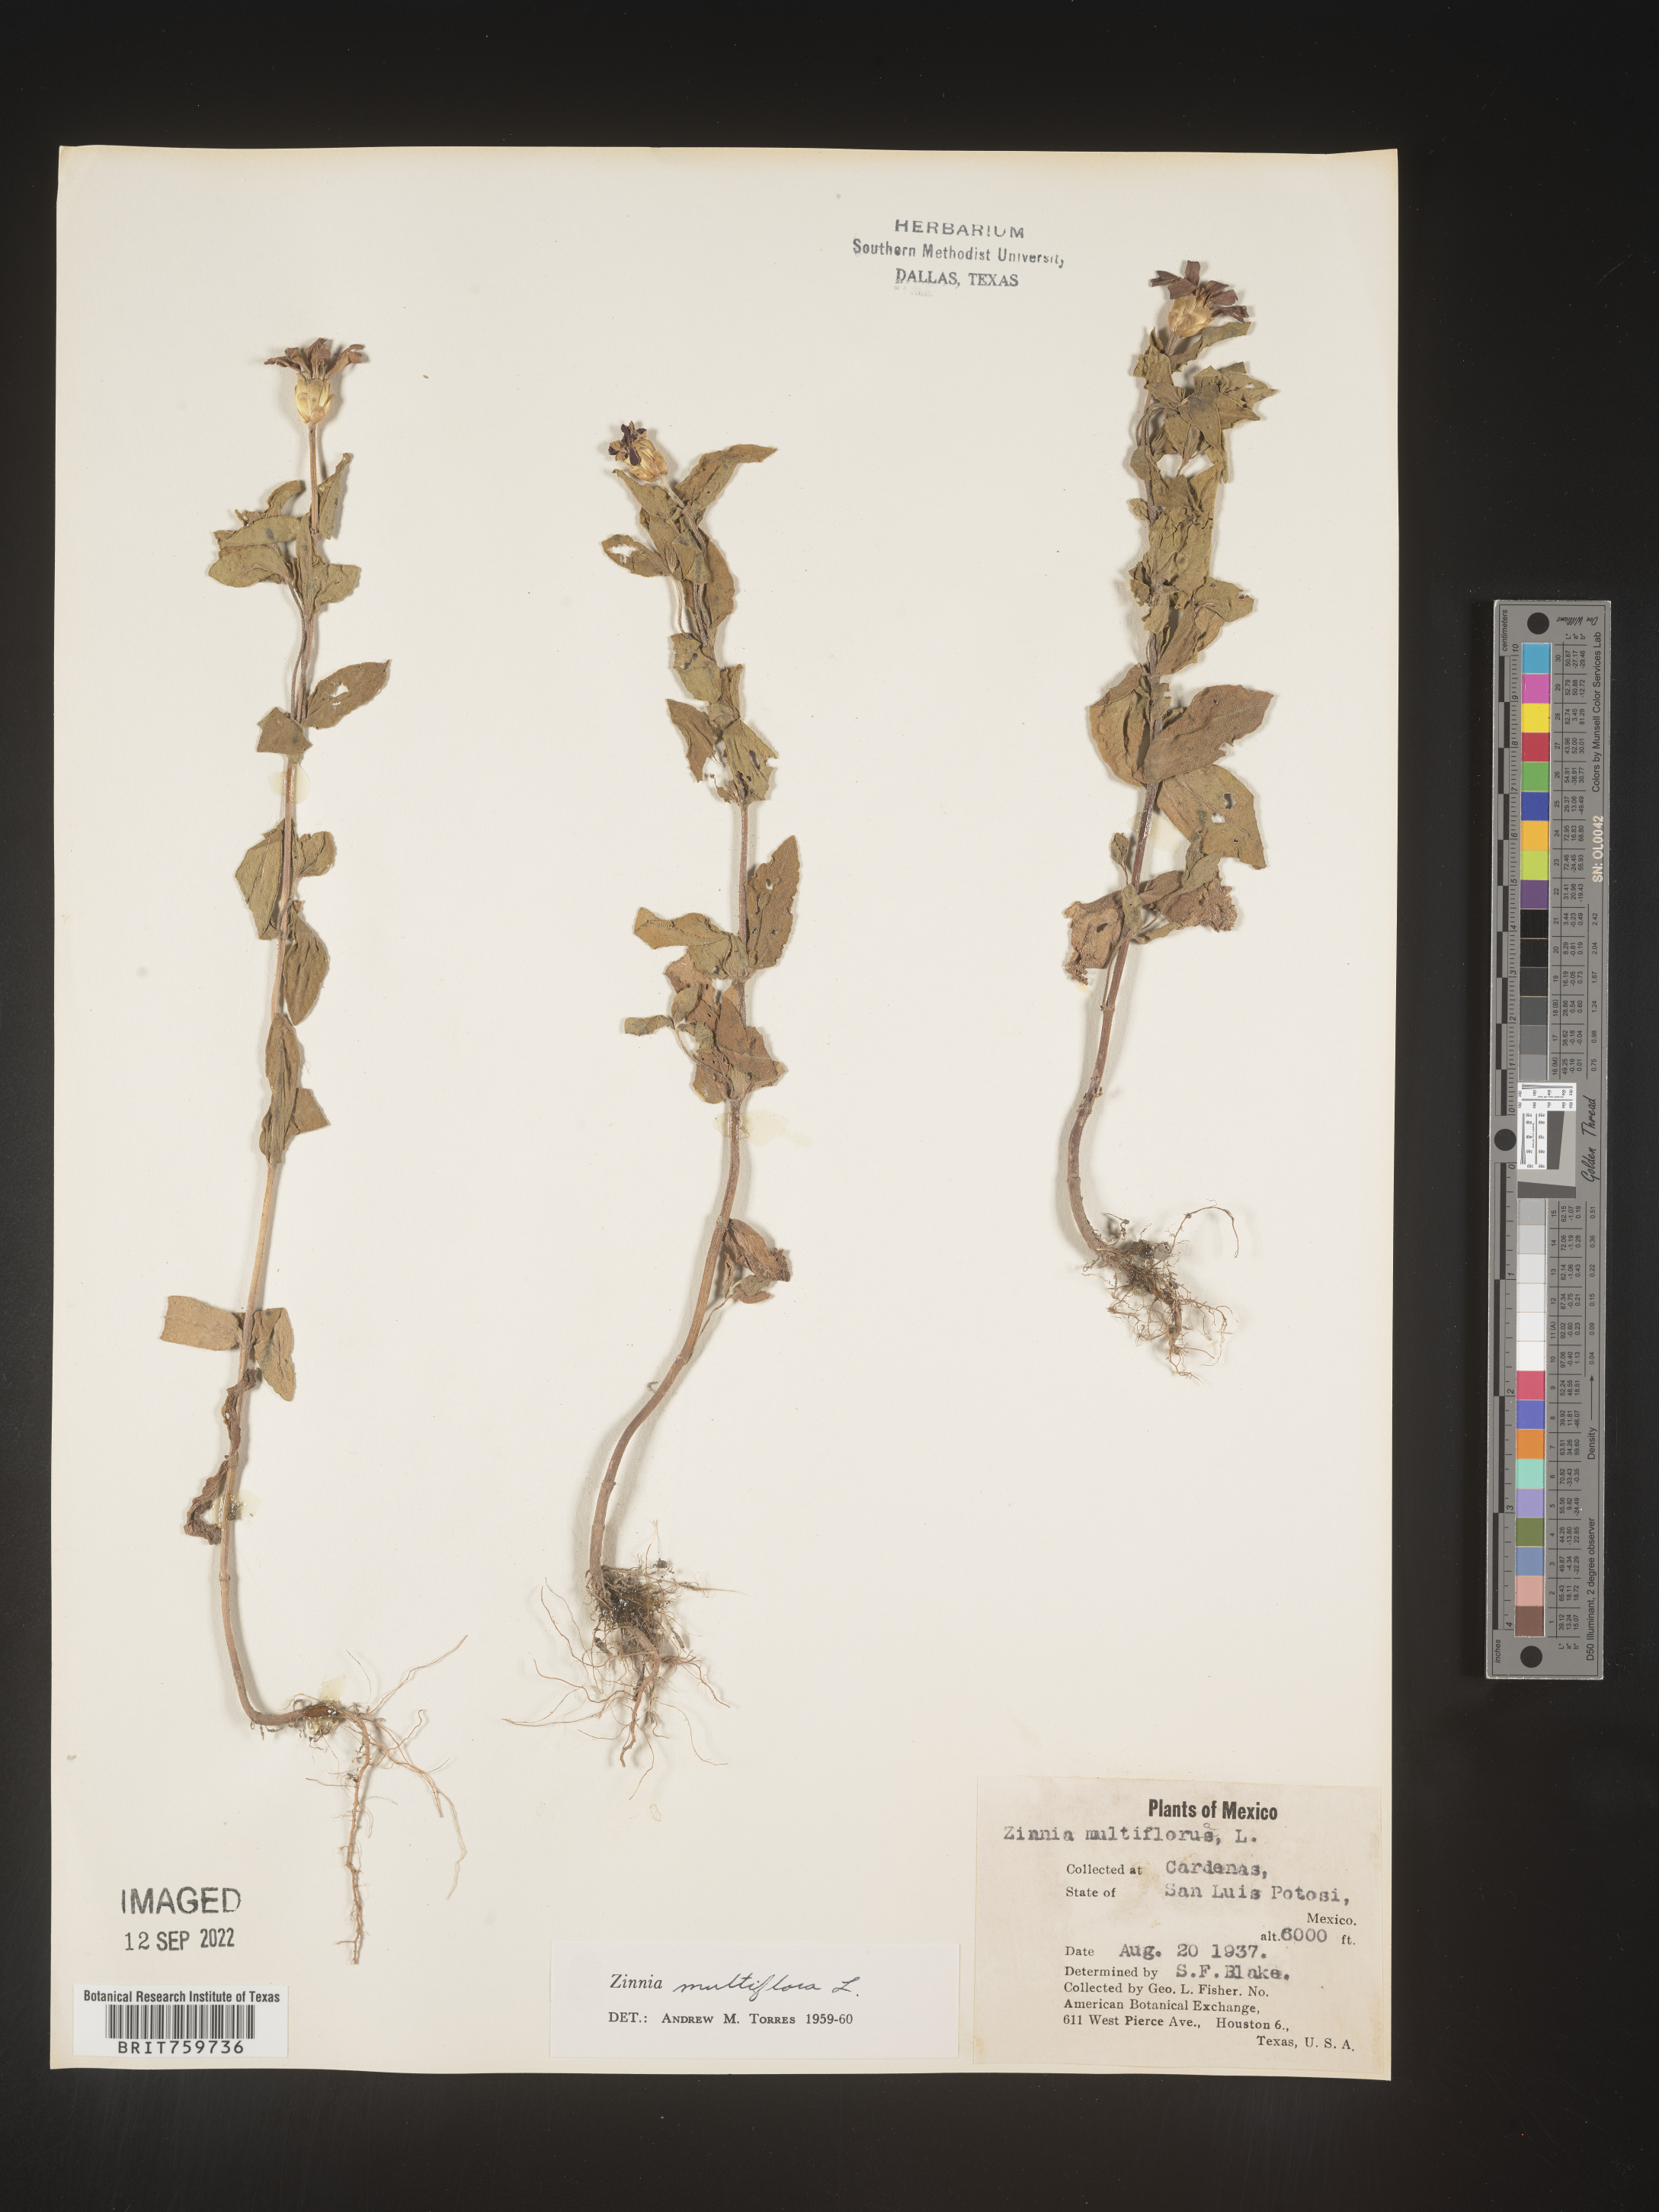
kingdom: Plantae
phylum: Tracheophyta
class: Magnoliopsida
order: Asterales
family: Asteraceae
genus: Zinnia
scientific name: Zinnia
